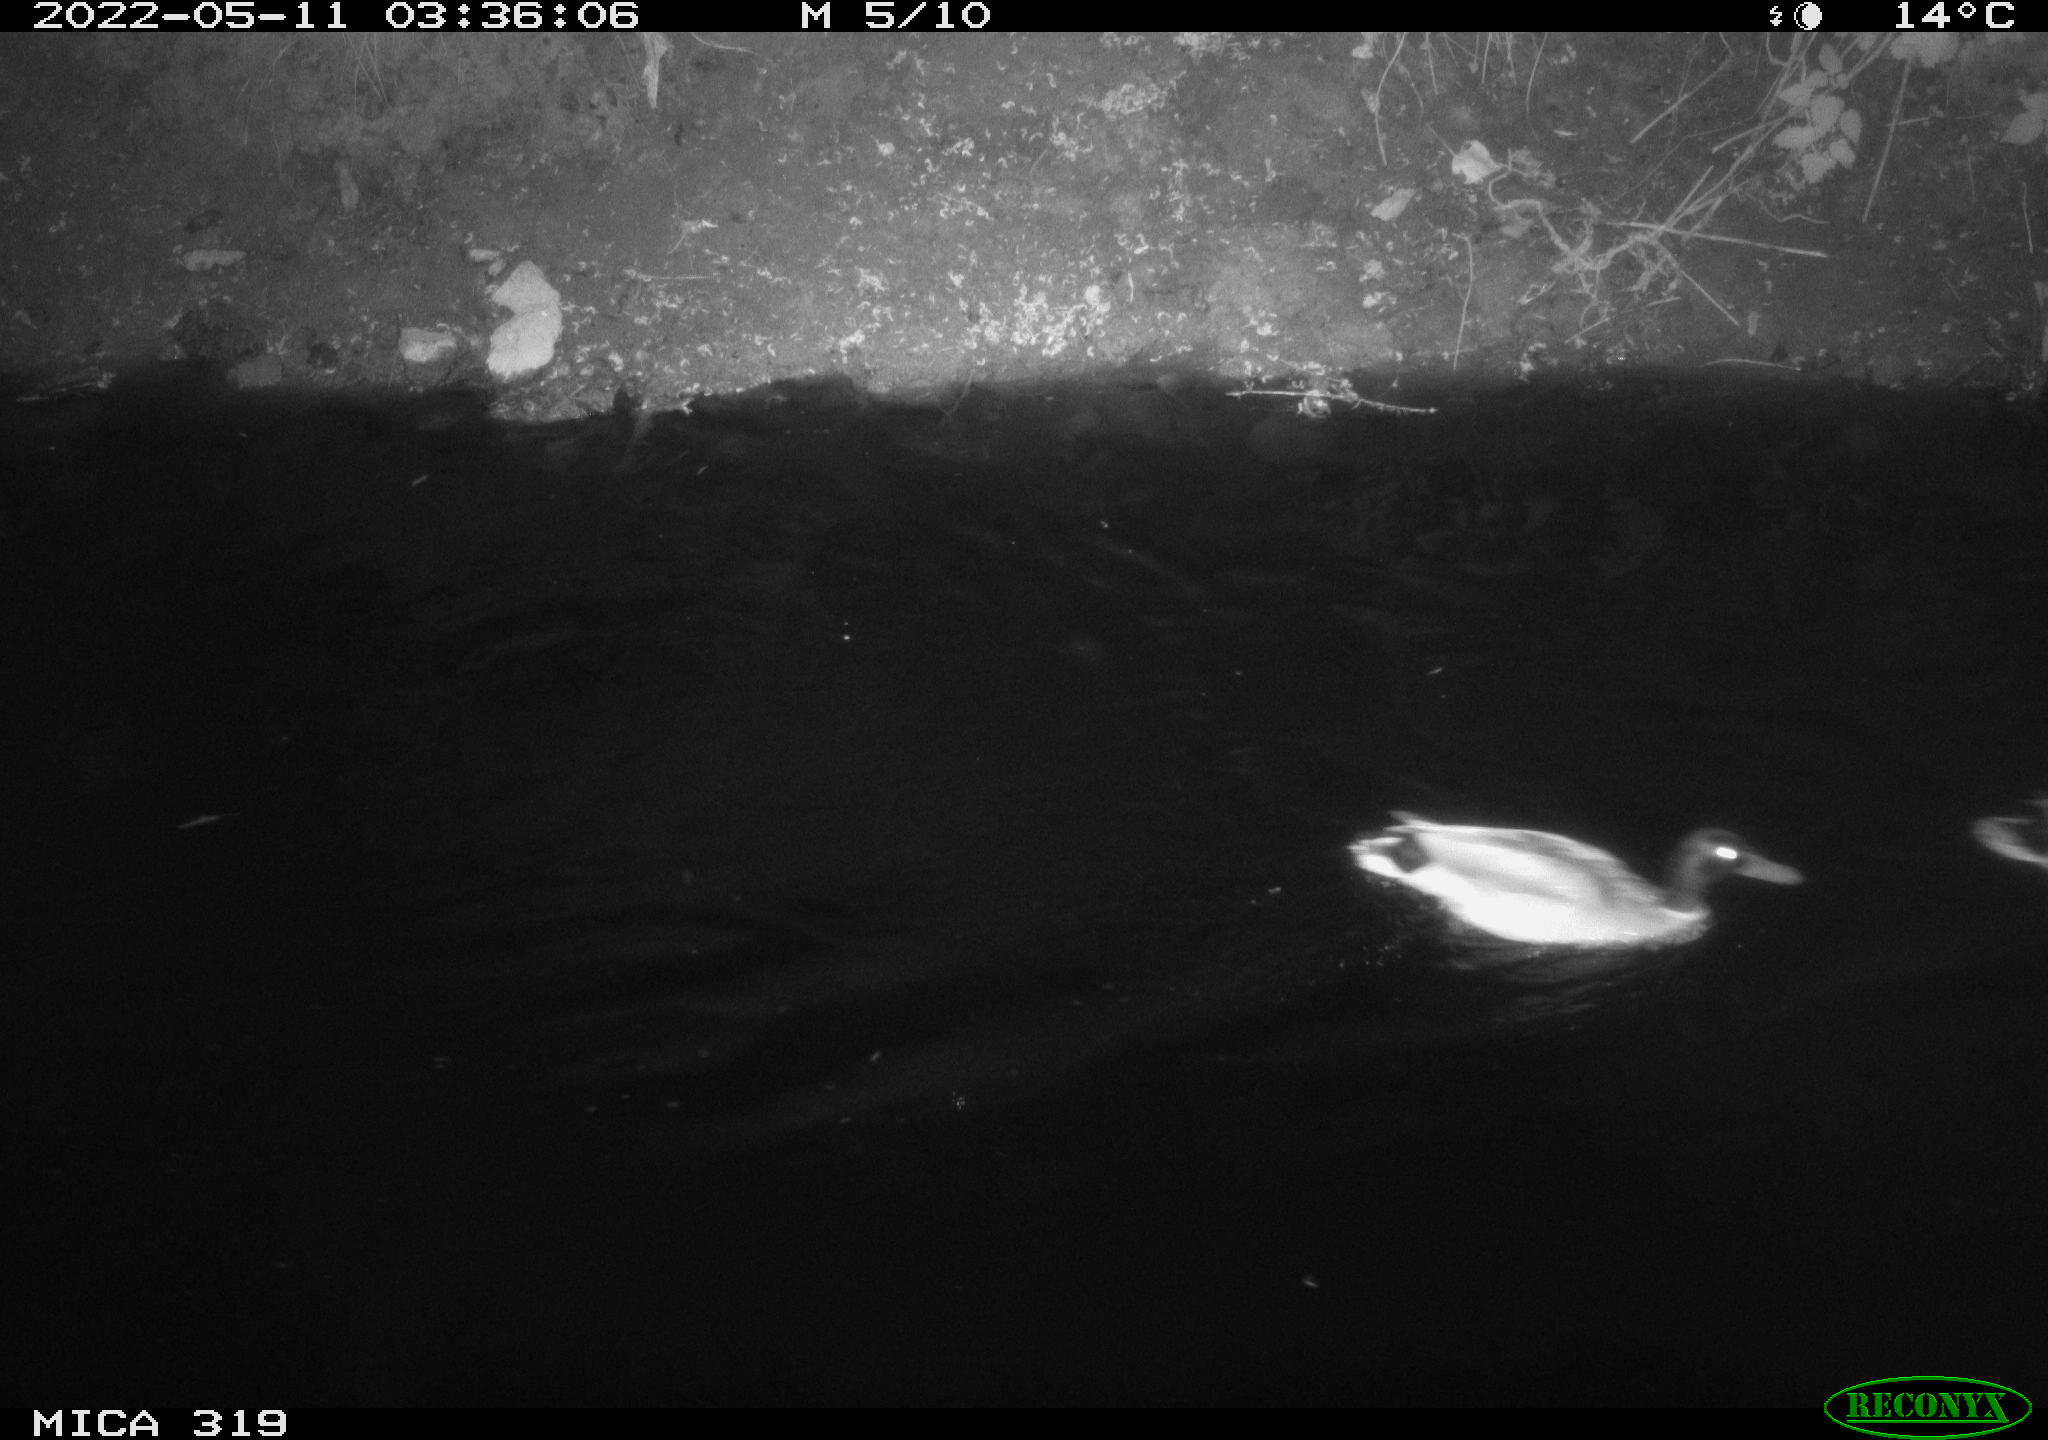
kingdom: Animalia
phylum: Chordata
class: Aves
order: Anseriformes
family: Anatidae
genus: Anas
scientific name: Anas
